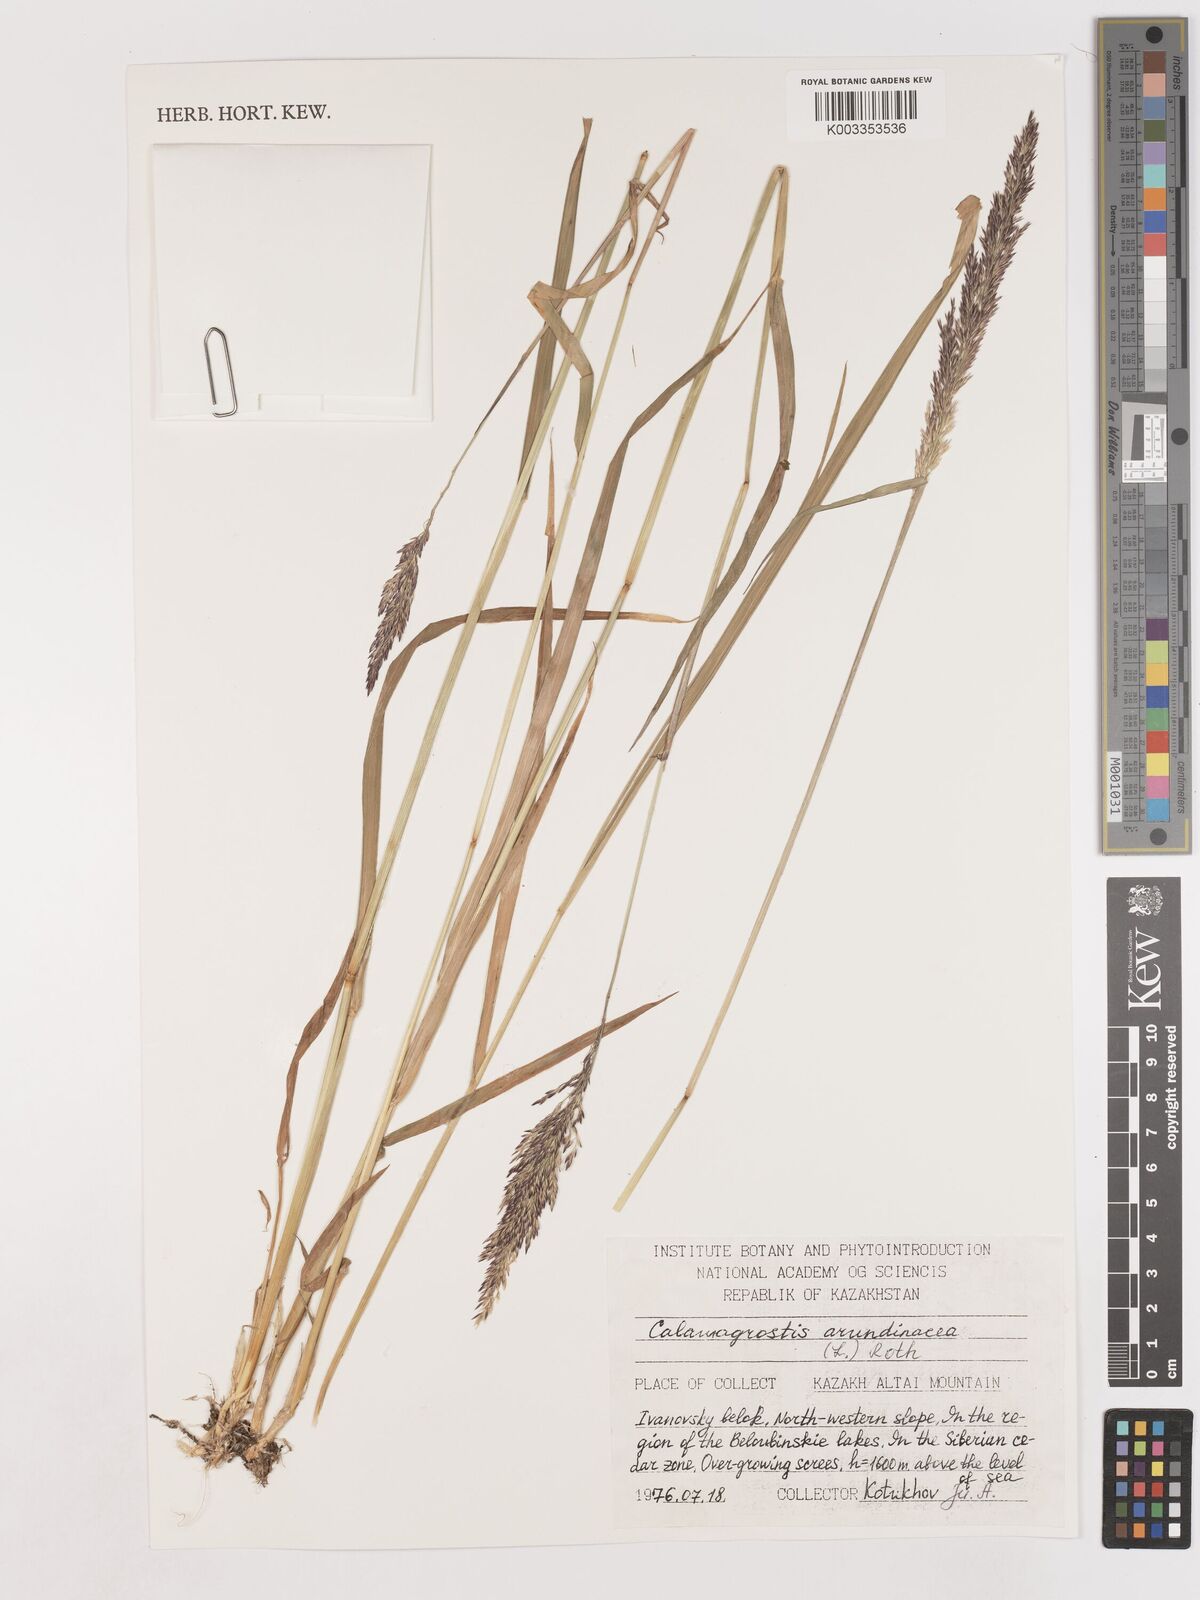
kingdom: Plantae
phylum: Tracheophyta
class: Liliopsida
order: Poales
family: Poaceae
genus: Calamagrostis
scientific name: Calamagrostis
